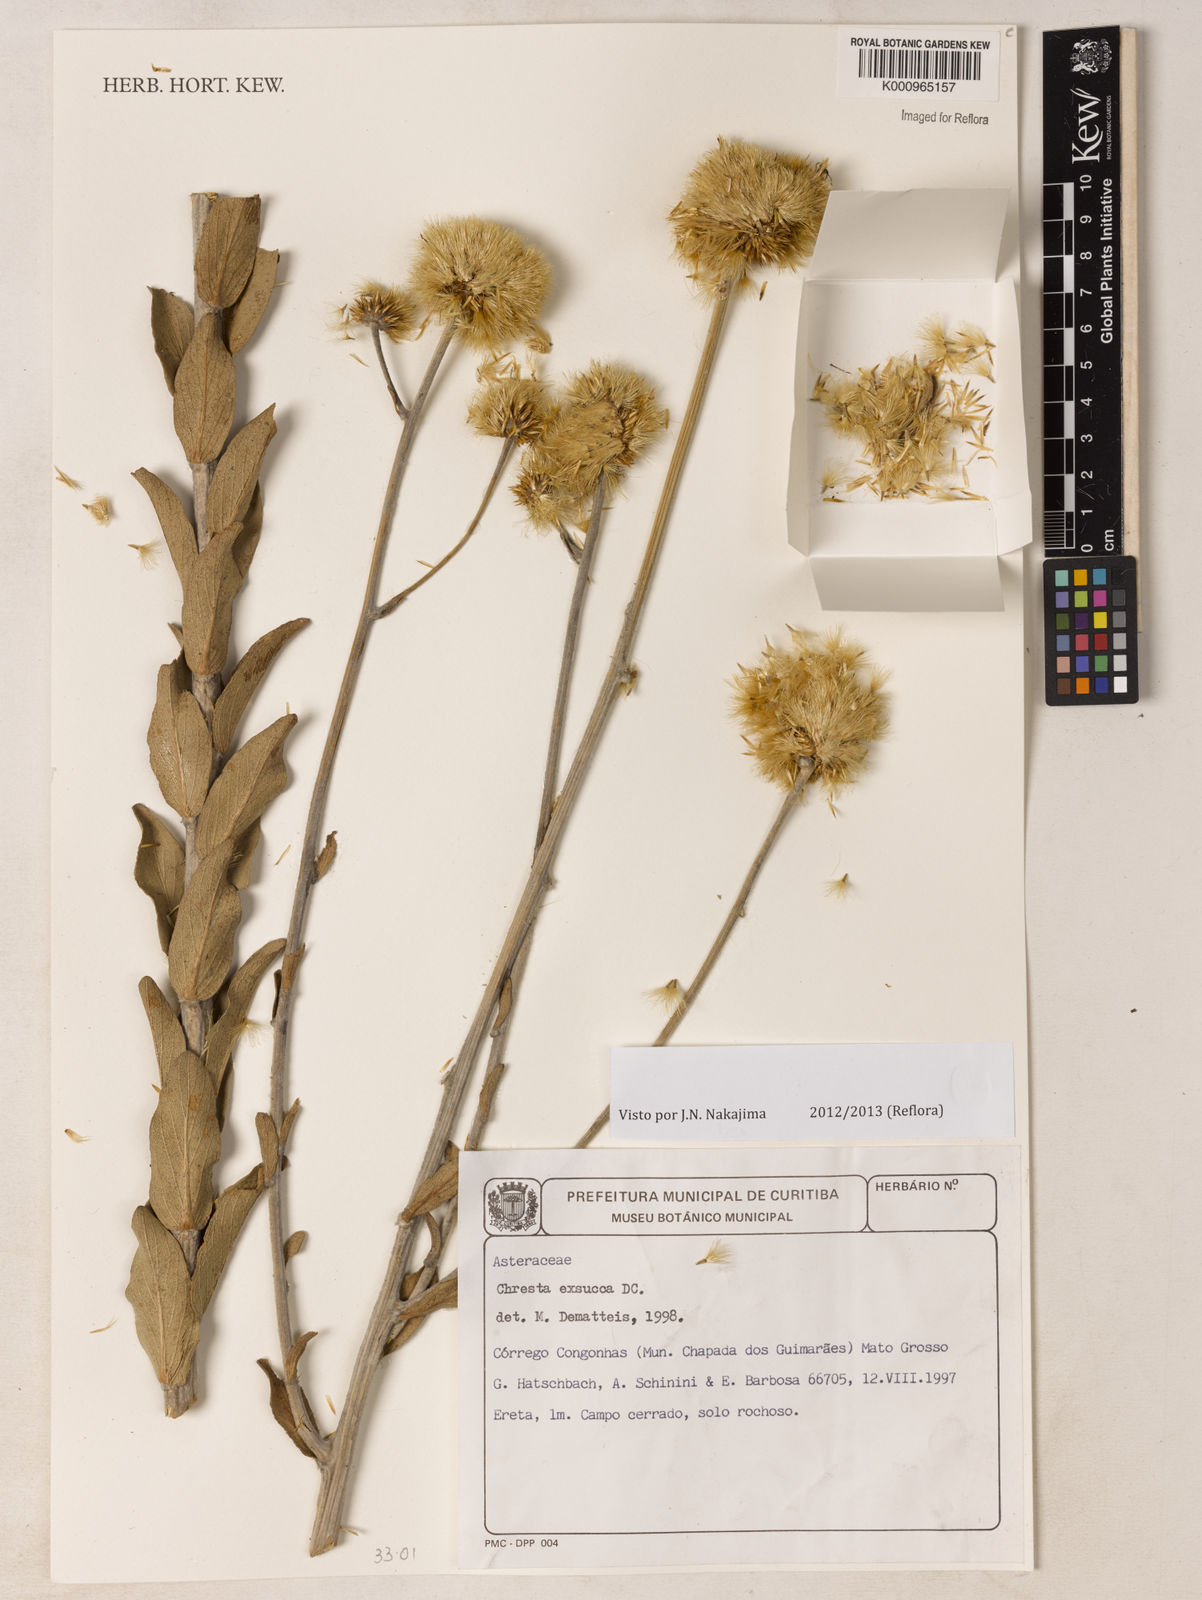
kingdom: Plantae
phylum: Tracheophyta
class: Magnoliopsida
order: Asterales
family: Asteraceae
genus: Chresta
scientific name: Chresta exsucca
